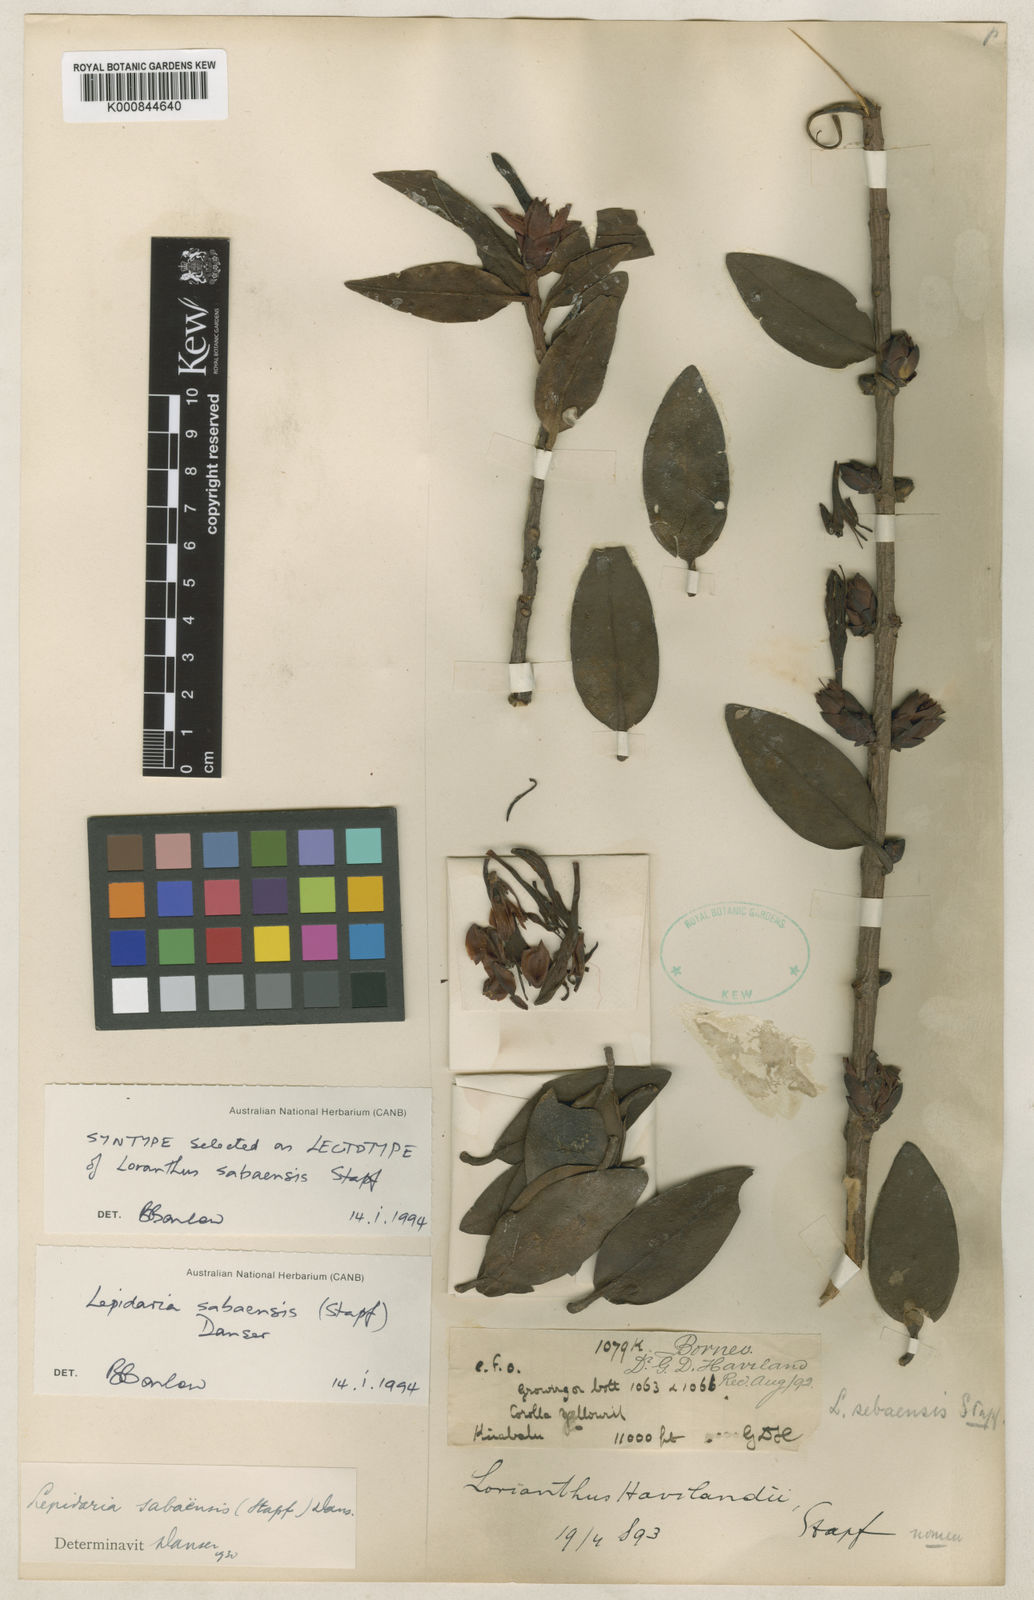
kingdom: Plantae
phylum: Tracheophyta
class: Magnoliopsida
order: Santalales
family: Loranthaceae
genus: Lepidaria
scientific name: Lepidaria sabaensis
